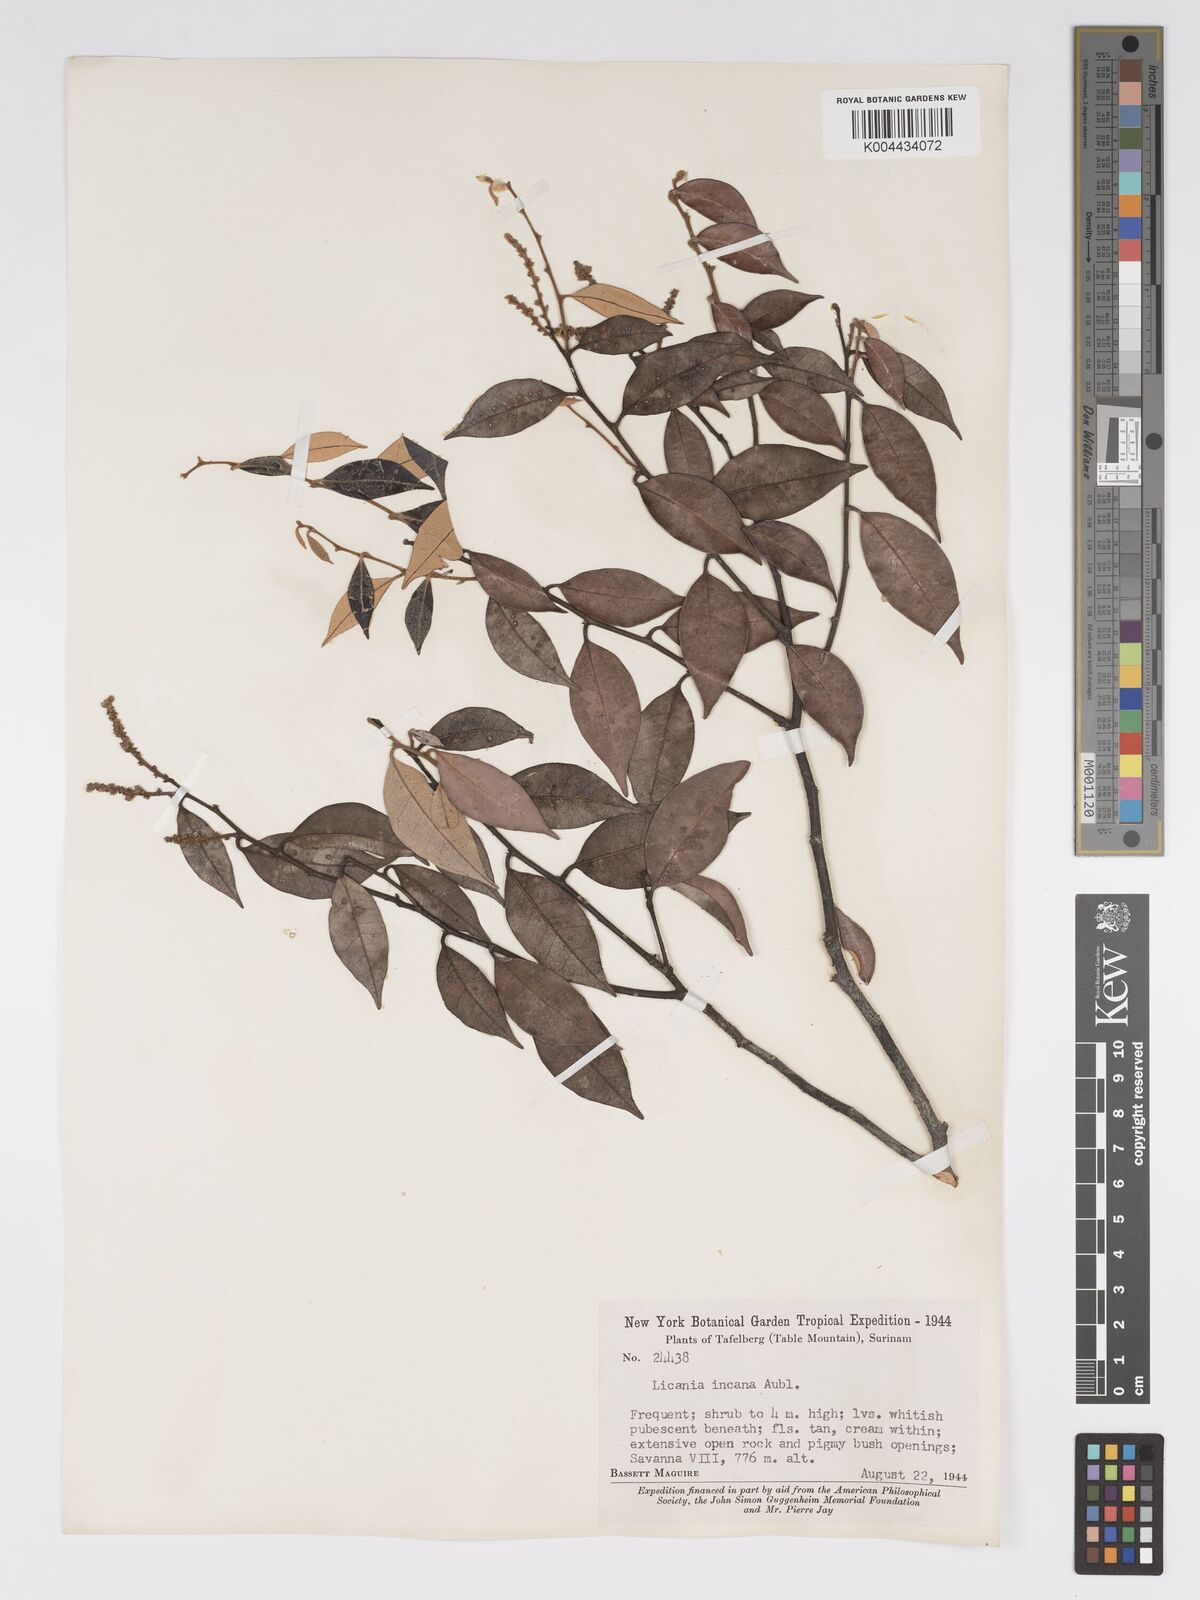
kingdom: Plantae
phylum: Tracheophyta
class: Magnoliopsida
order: Malpighiales
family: Chrysobalanaceae
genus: Licania
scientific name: Licania incana
